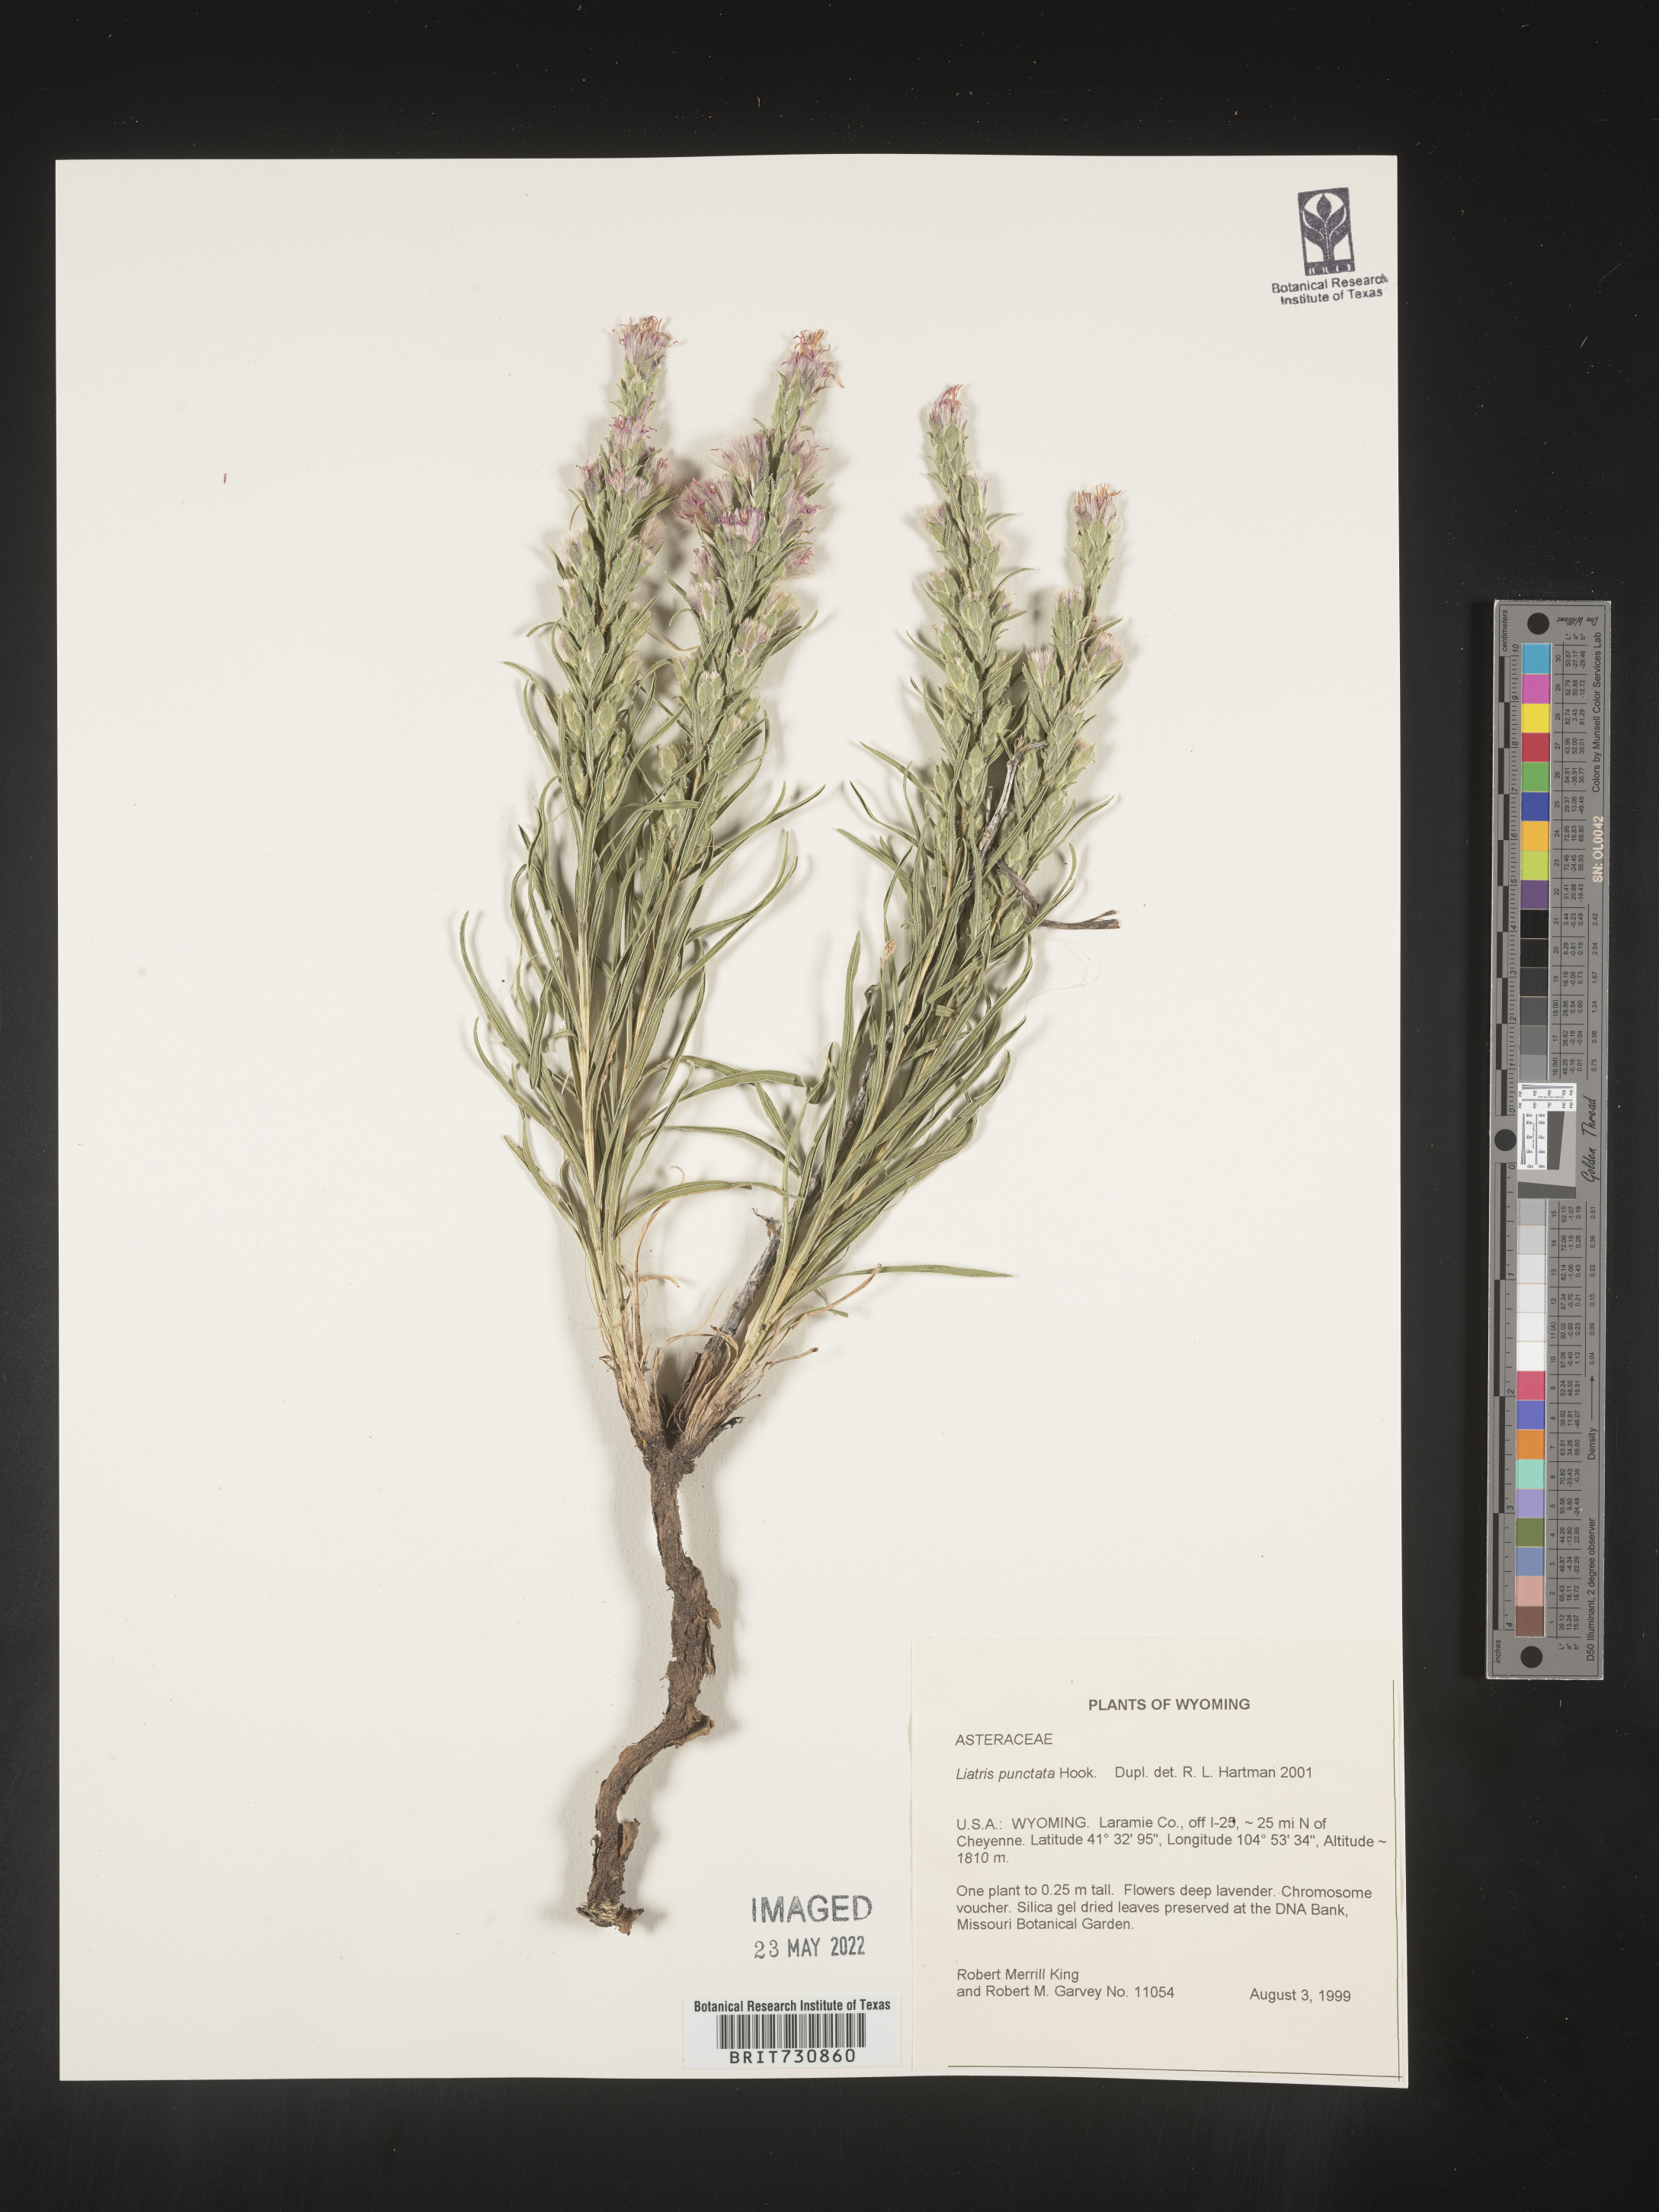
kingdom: Plantae
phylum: Tracheophyta
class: Magnoliopsida
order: Asterales
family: Asteraceae
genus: Liatris
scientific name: Liatris punctata
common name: Dotted gayfeather
